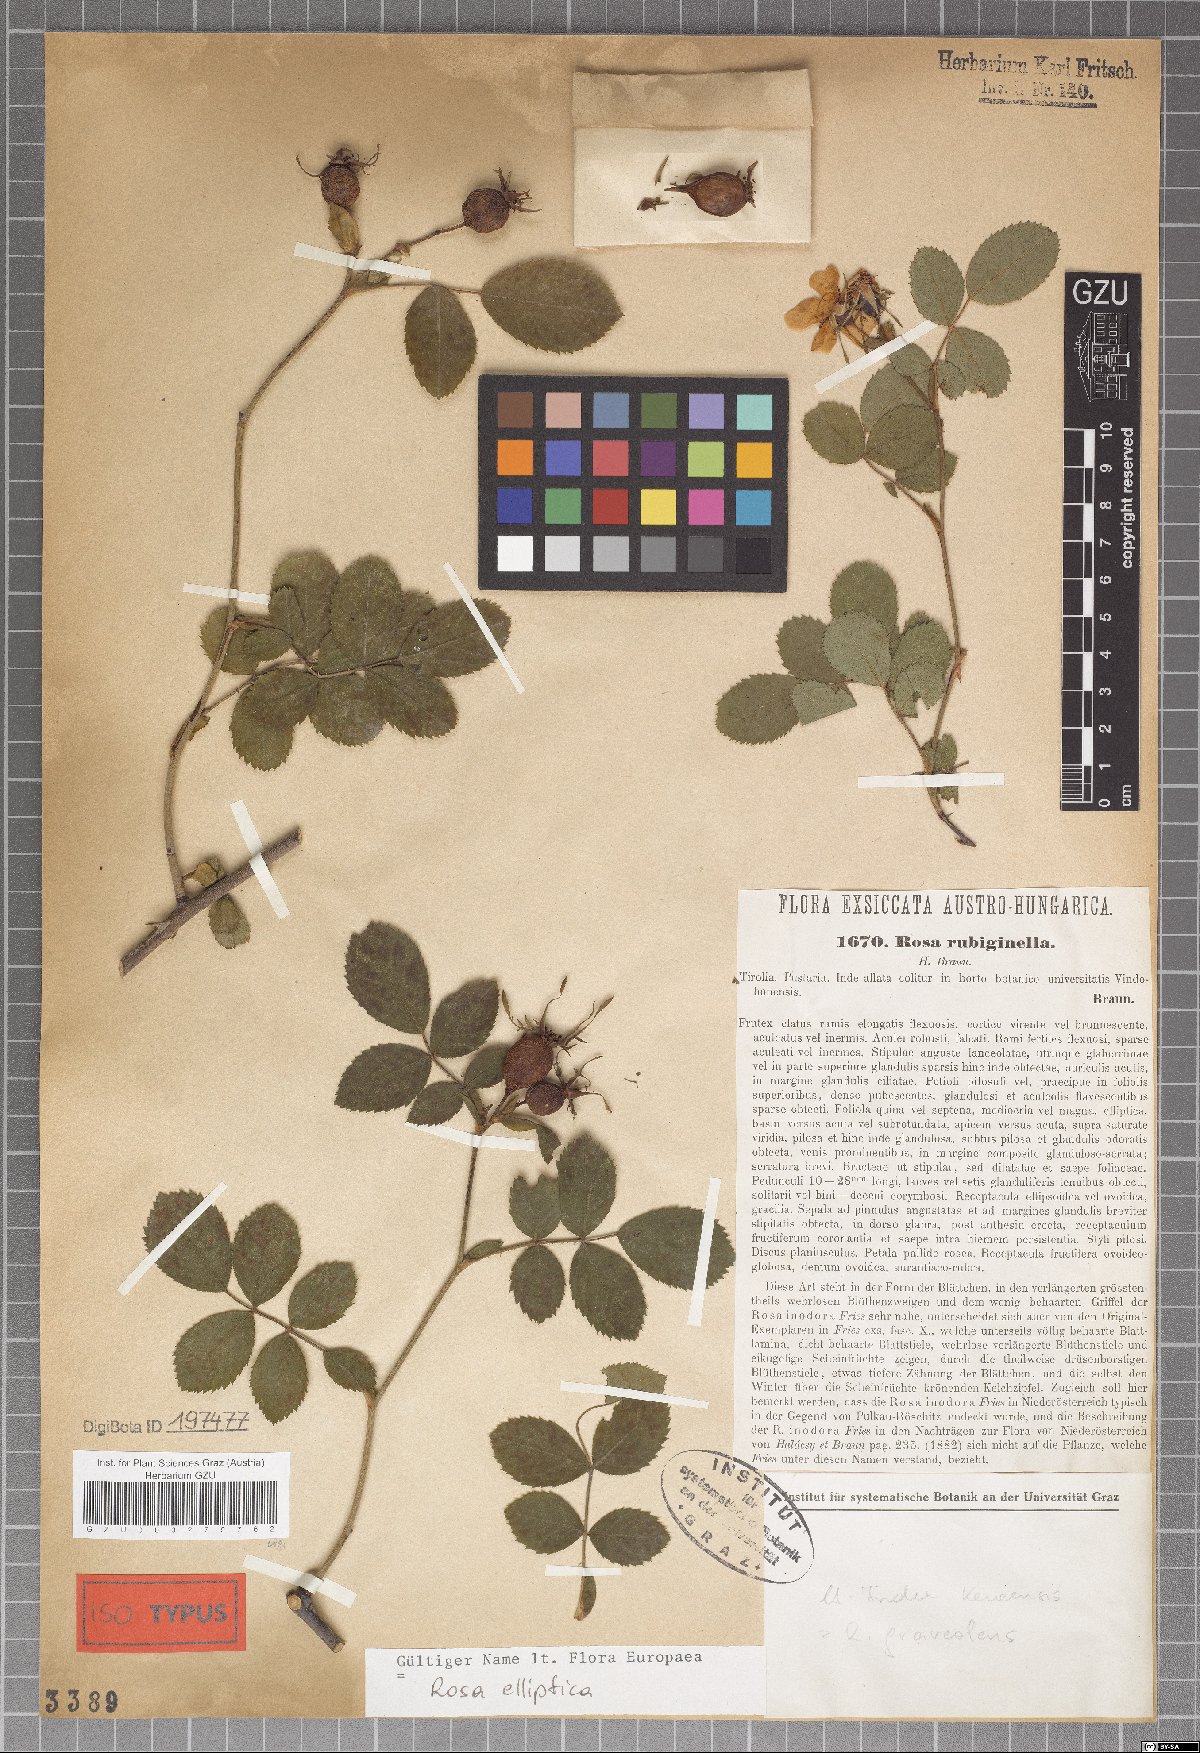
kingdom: Plantae
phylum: Tracheophyta
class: Magnoliopsida
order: Rosales
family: Rosaceae
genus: Rosa
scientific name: Rosa rubiginella
